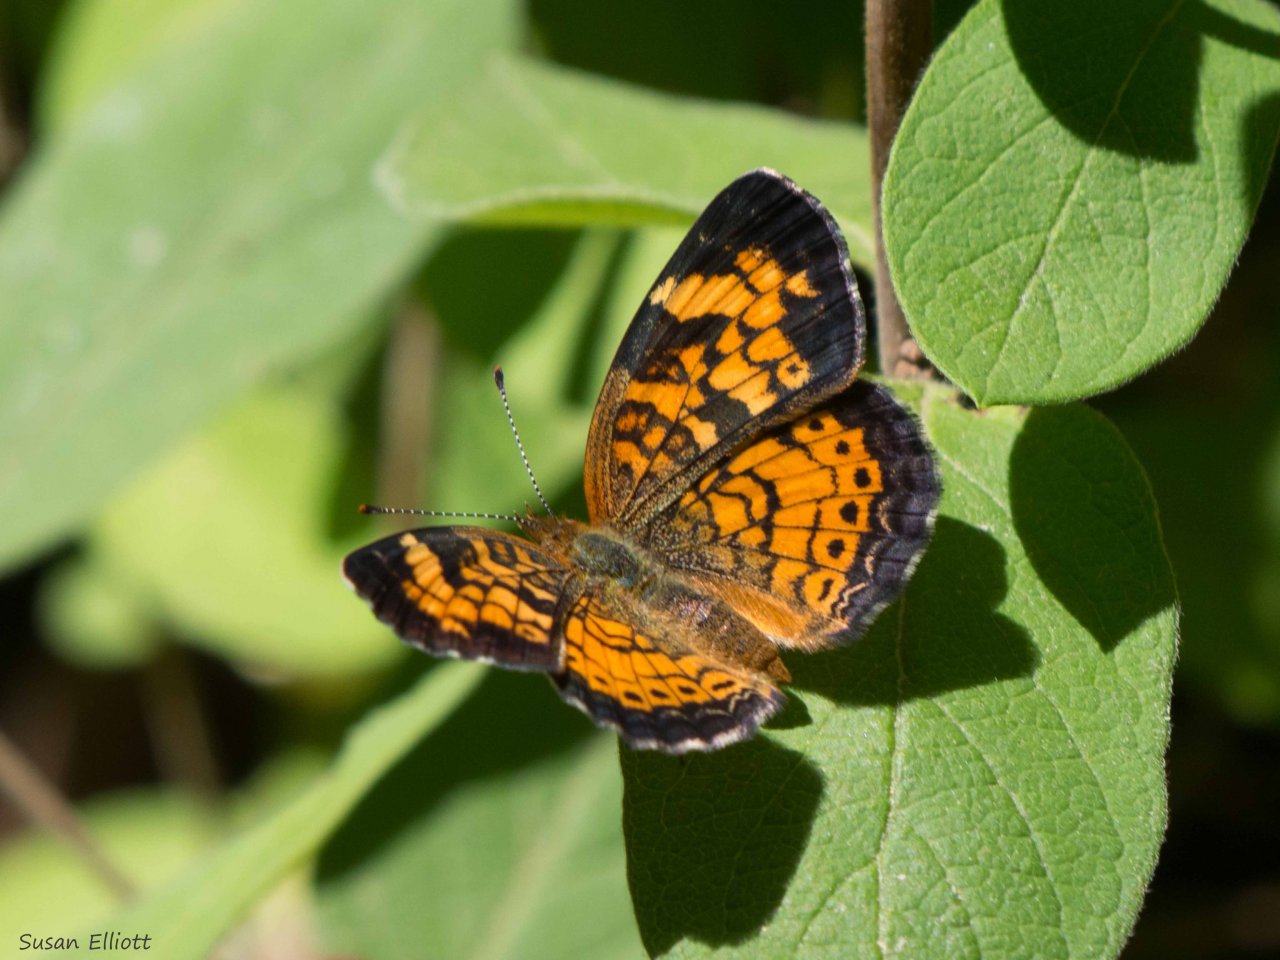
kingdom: Animalia
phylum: Arthropoda
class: Insecta
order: Lepidoptera
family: Nymphalidae
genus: Phyciodes
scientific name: Phyciodes tharos
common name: Pearl Crescent
